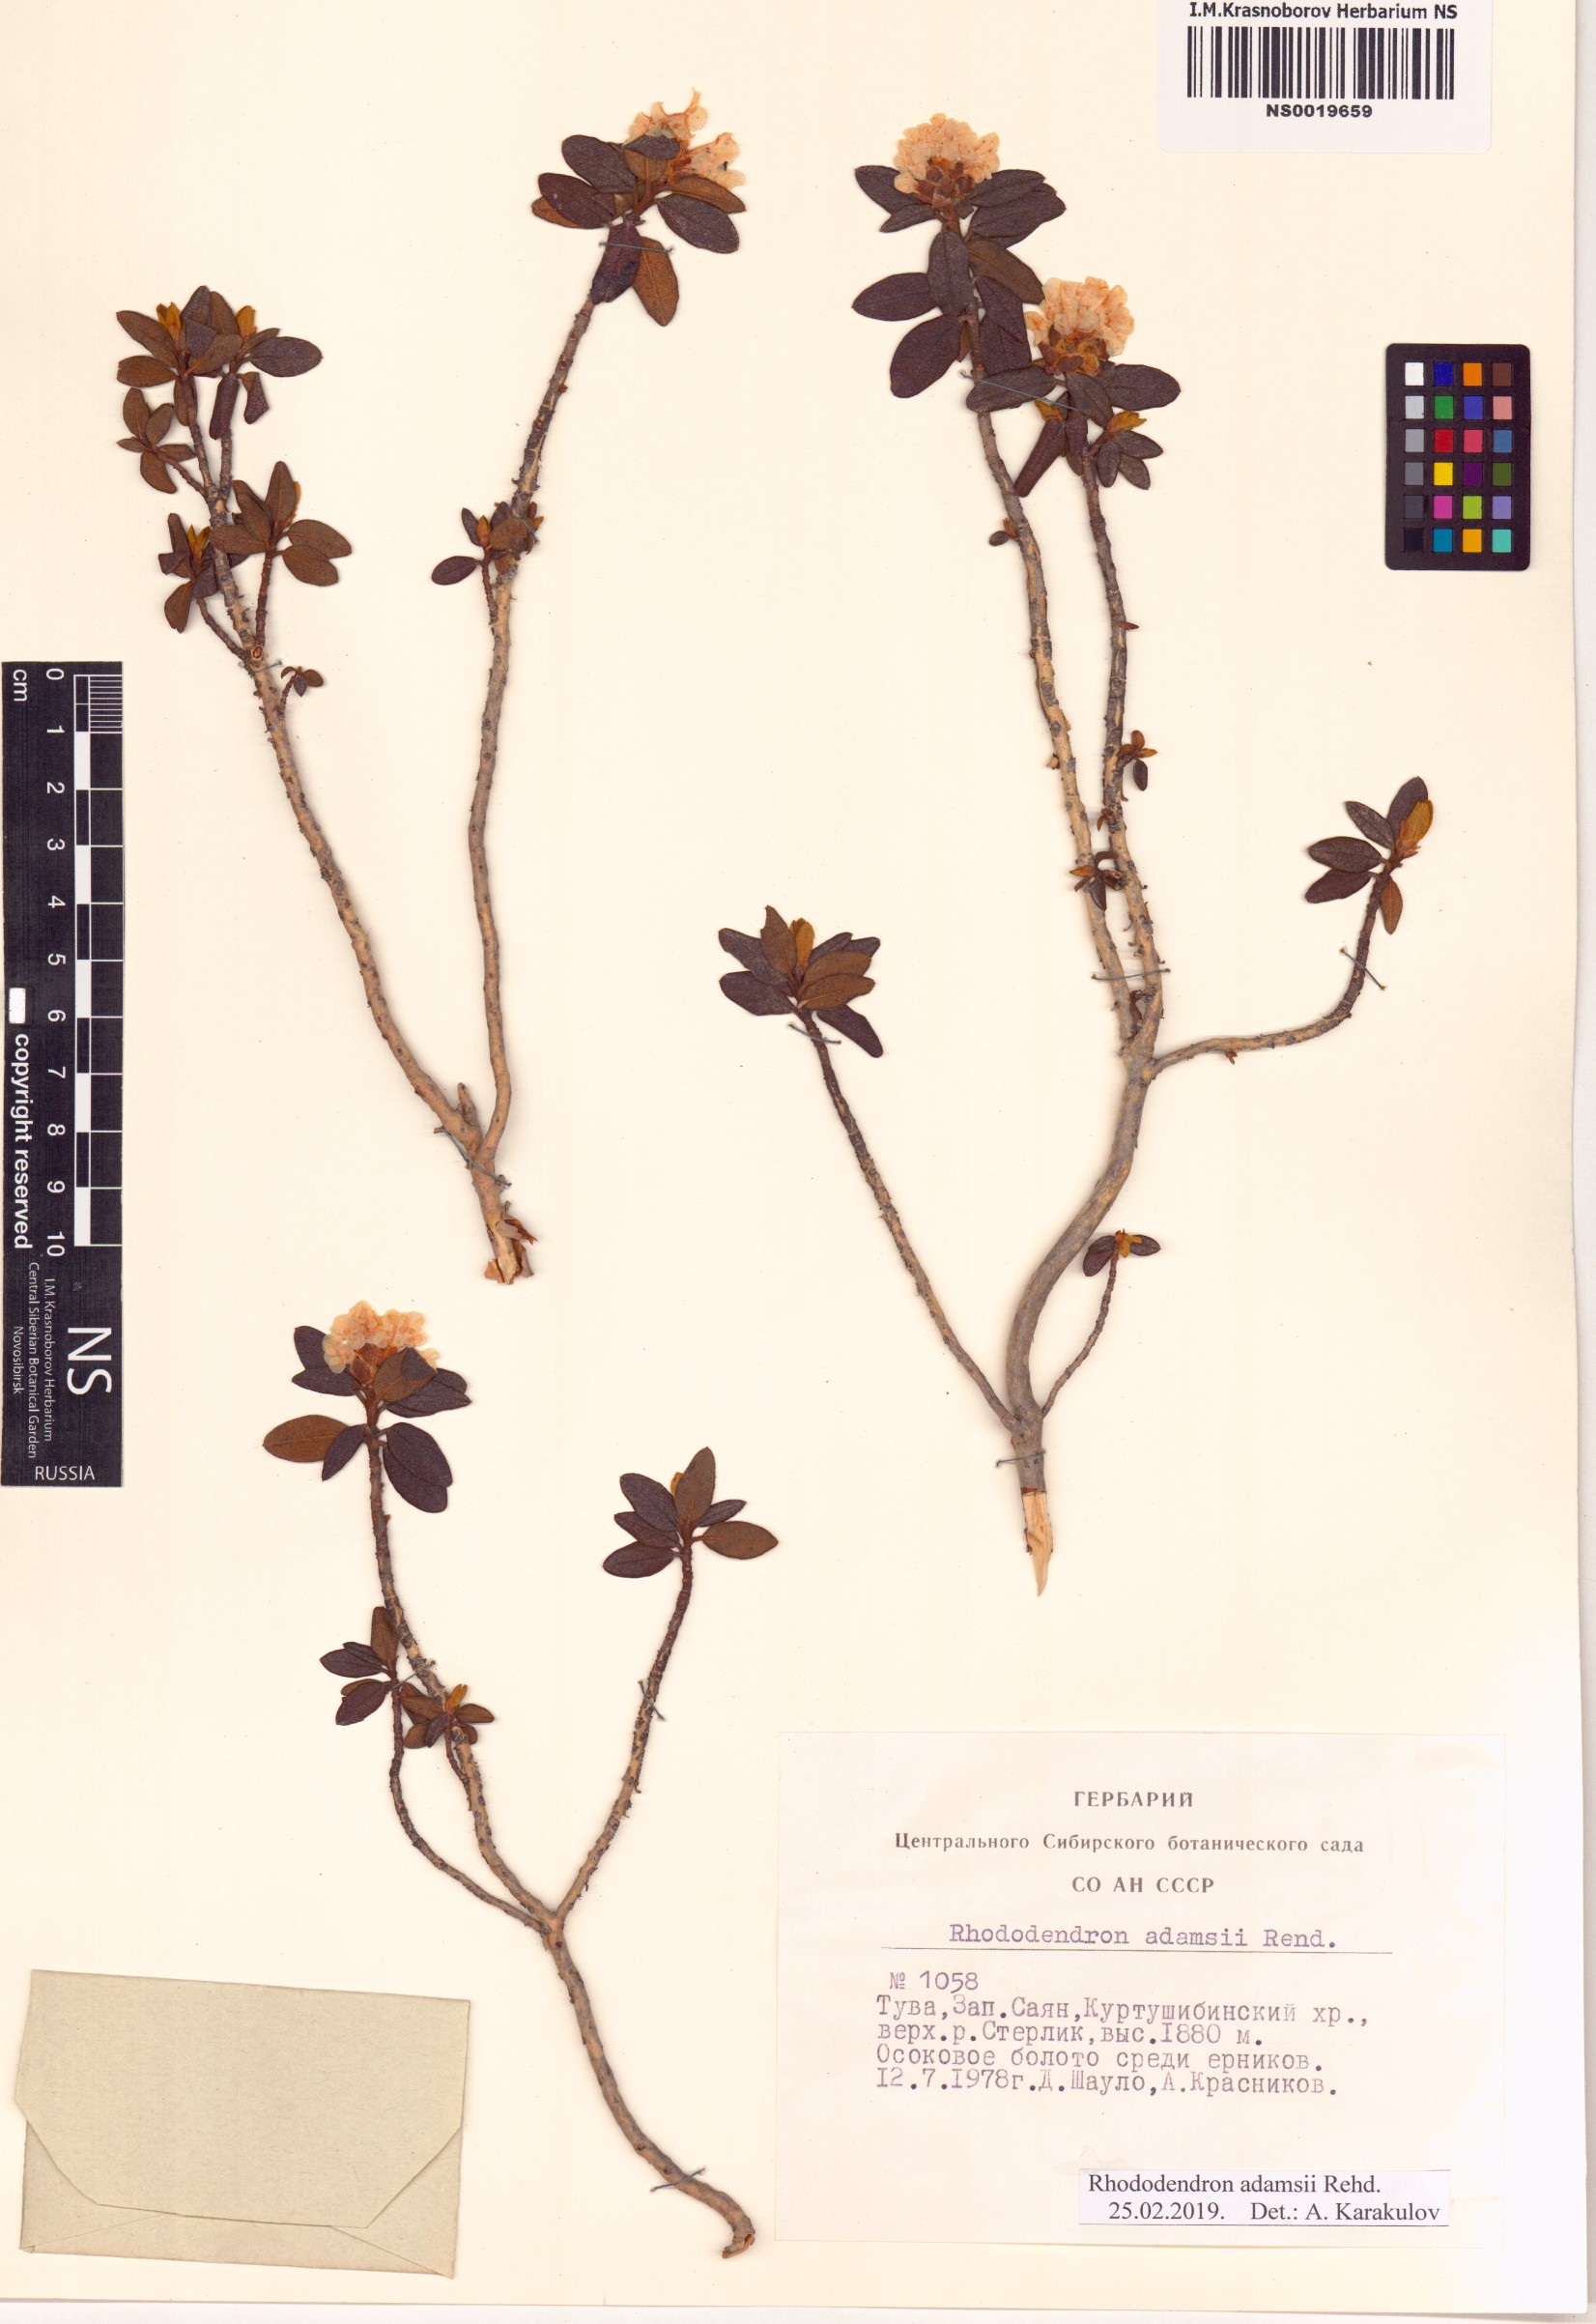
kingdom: Plantae
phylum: Tracheophyta
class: Magnoliopsida
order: Ericales
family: Ericaceae
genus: Rhododendron
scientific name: Rhododendron adamsii
